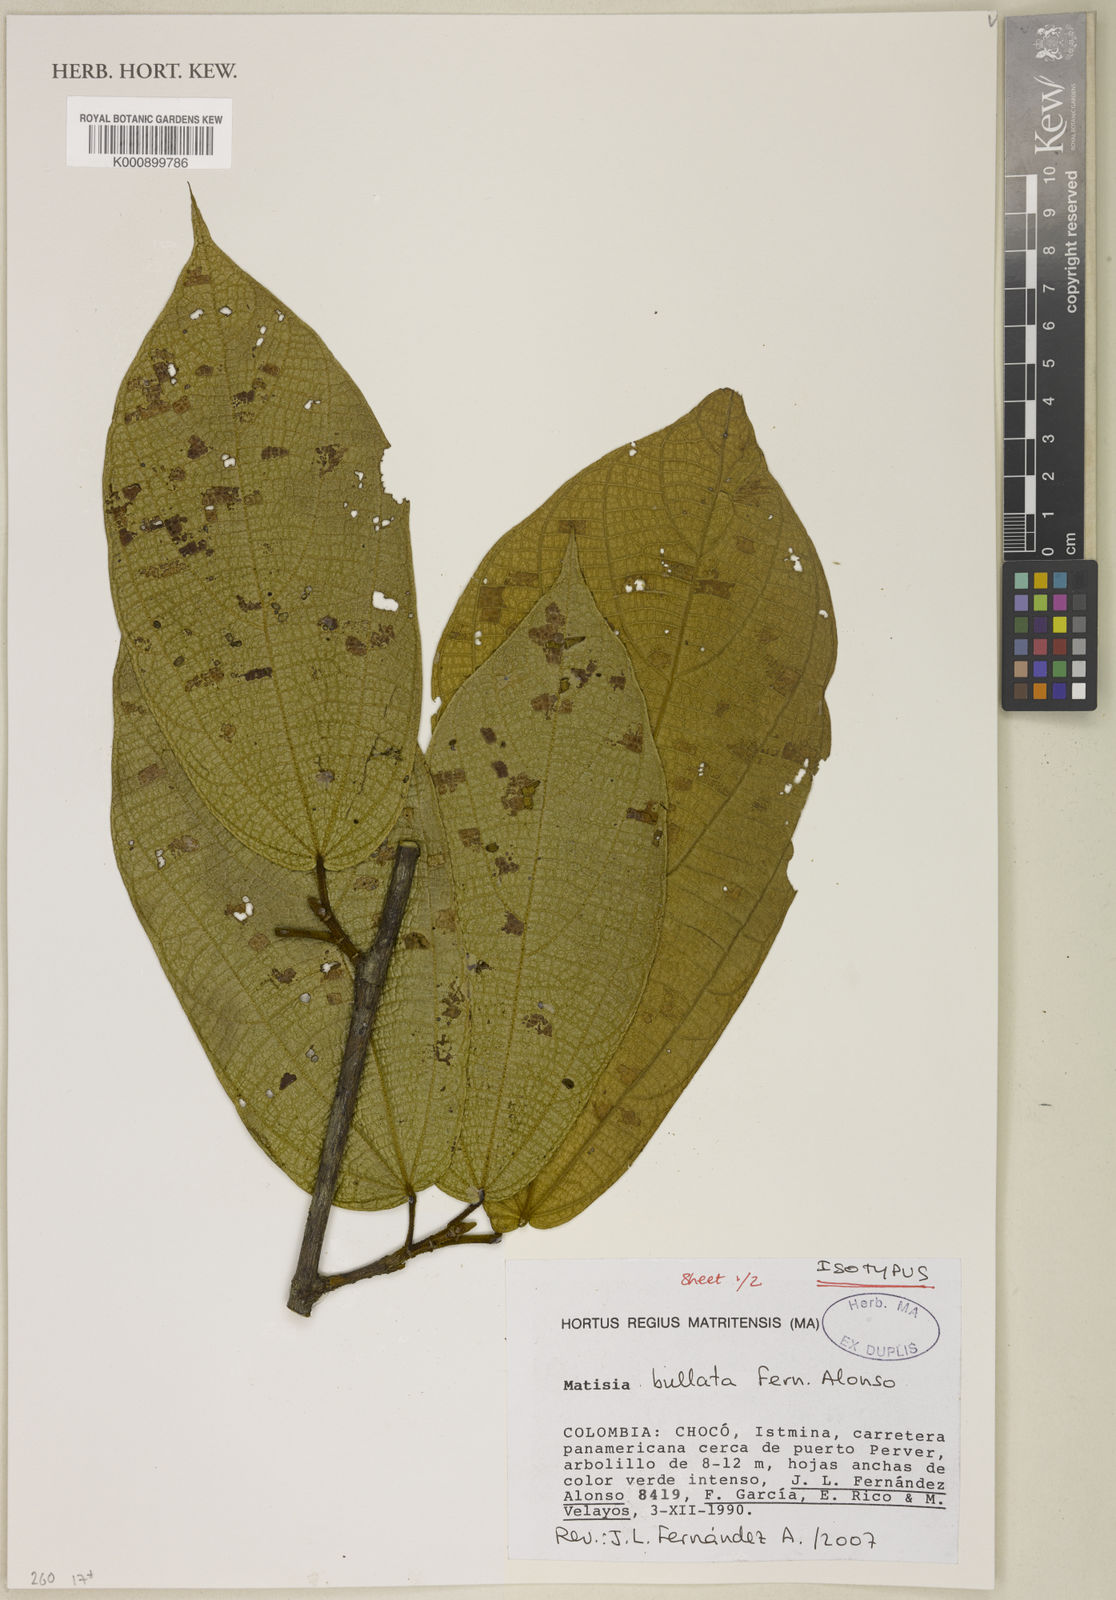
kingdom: Plantae
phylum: Tracheophyta
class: Magnoliopsida
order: Malvales
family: Malvaceae
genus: Matisia
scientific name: Matisia bullata
